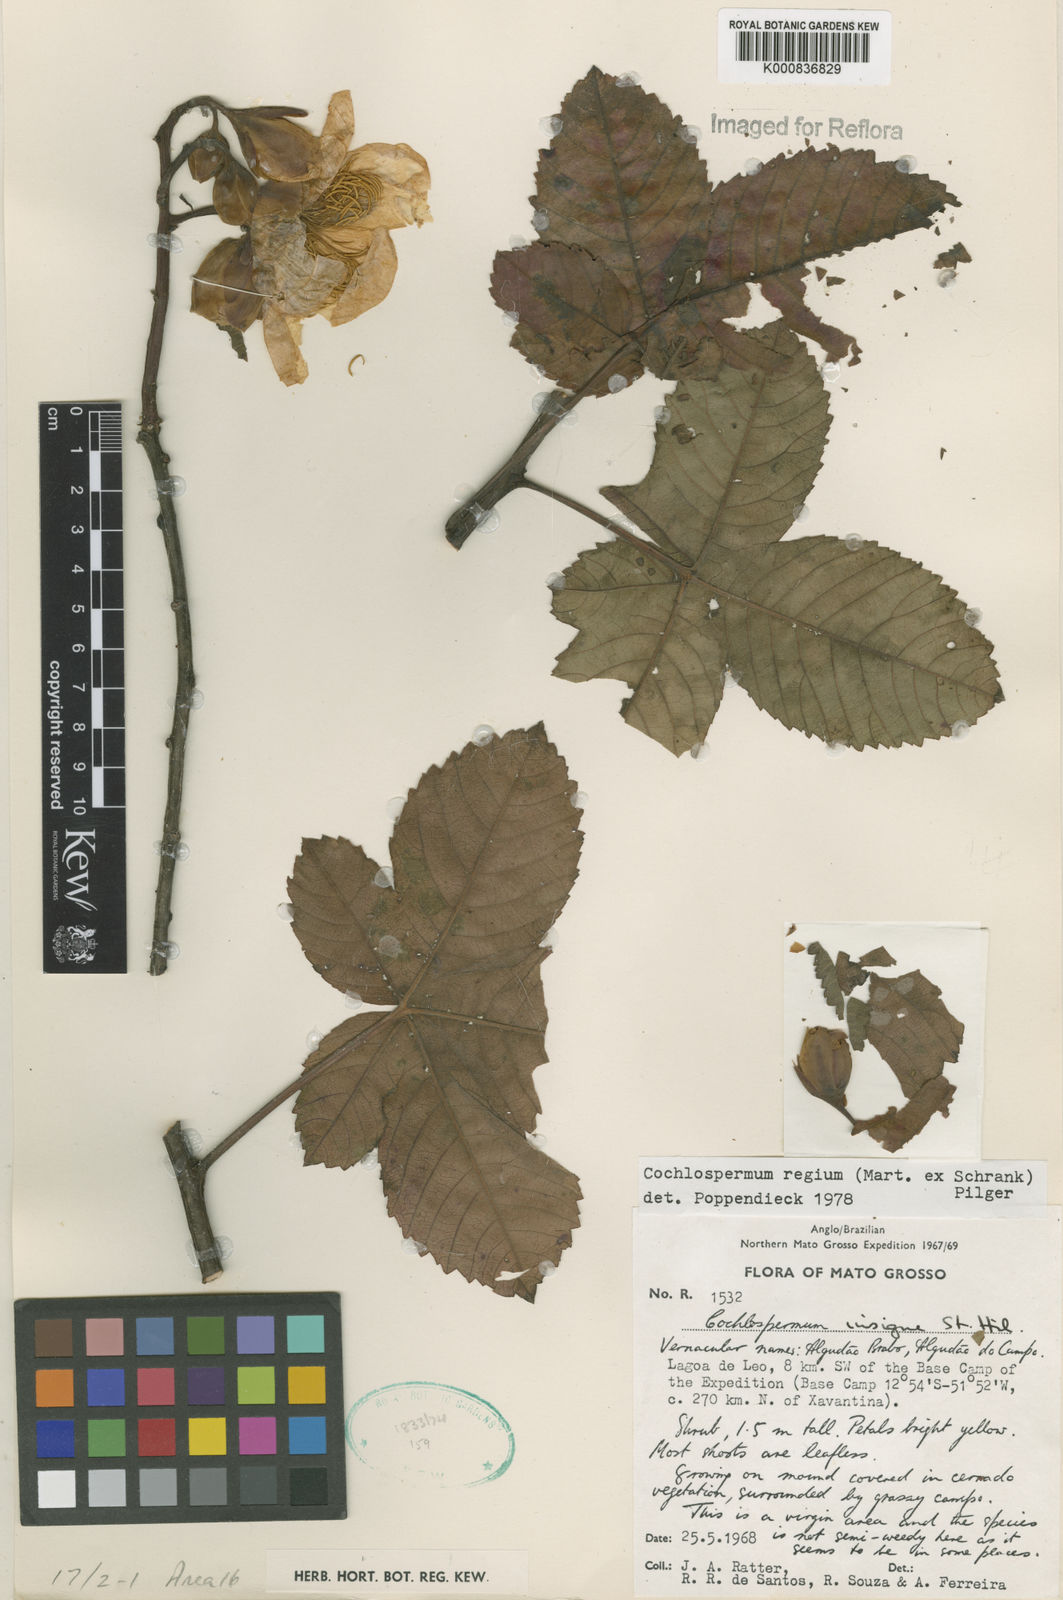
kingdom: Plantae
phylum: Tracheophyta
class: Magnoliopsida
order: Malvales
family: Cochlospermaceae
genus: Cochlospermum
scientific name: Cochlospermum regium
